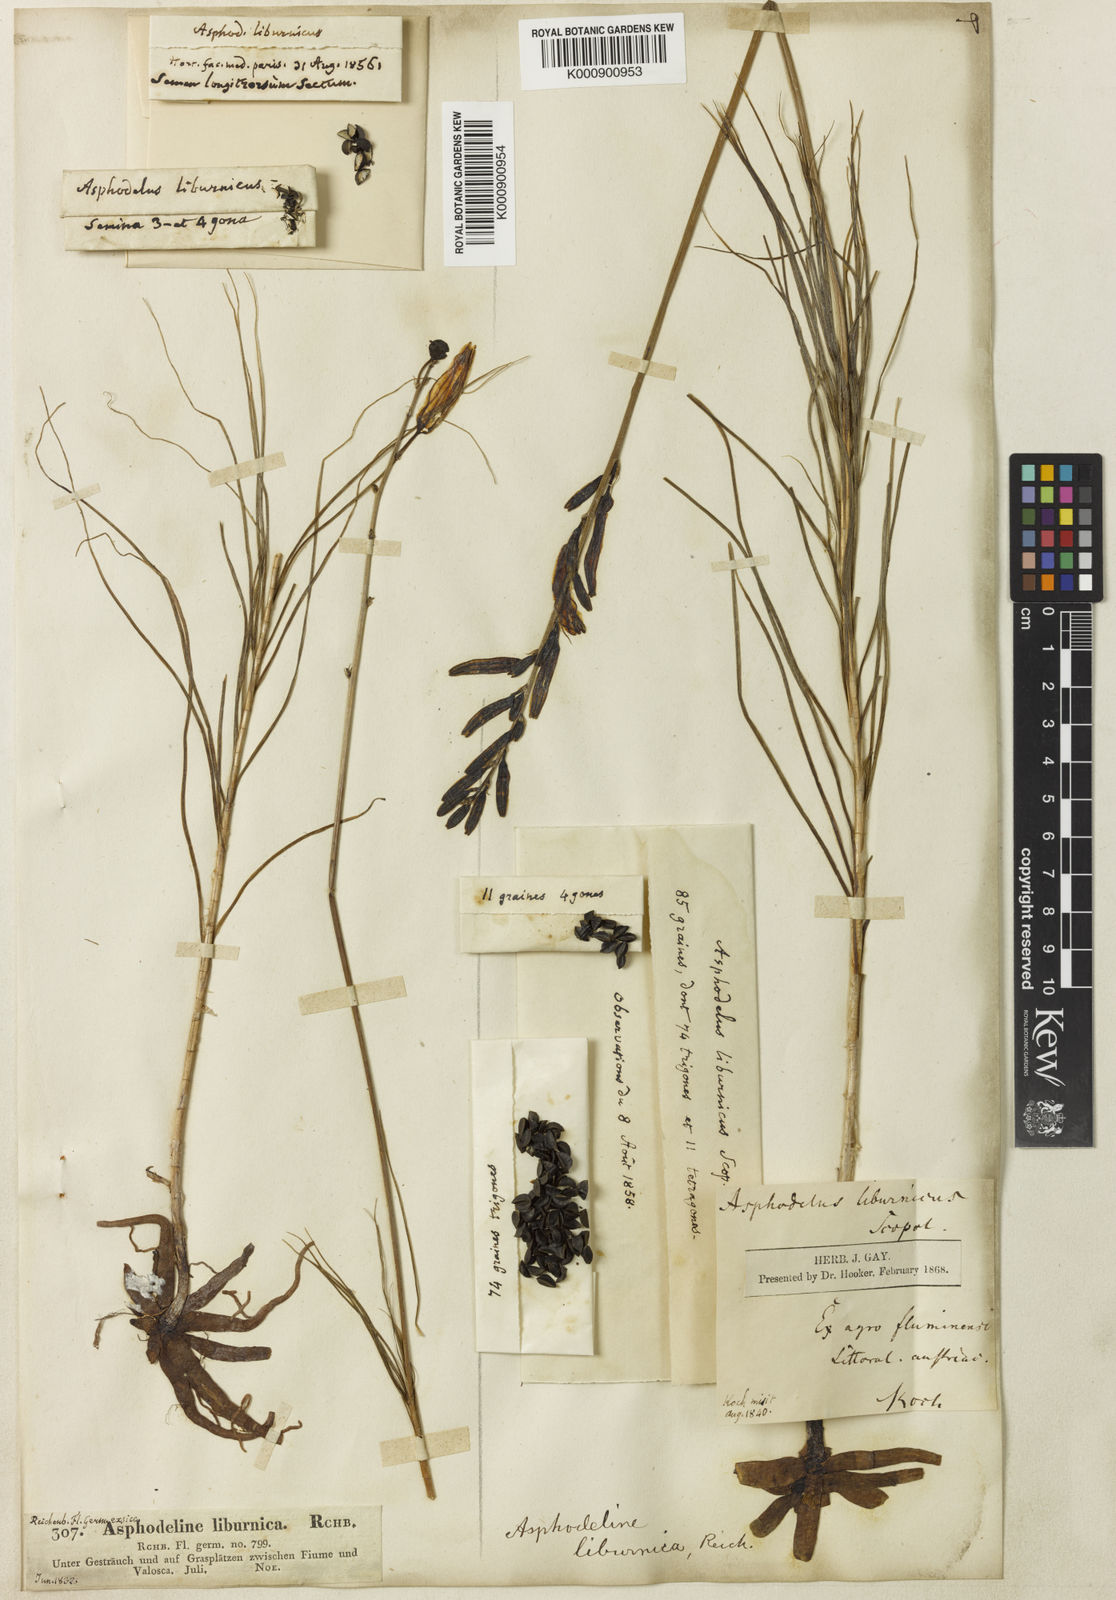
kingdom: Plantae
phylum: Tracheophyta
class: Liliopsida
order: Asparagales
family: Asphodelaceae
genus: Asphodeline
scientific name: Asphodeline liburnica
